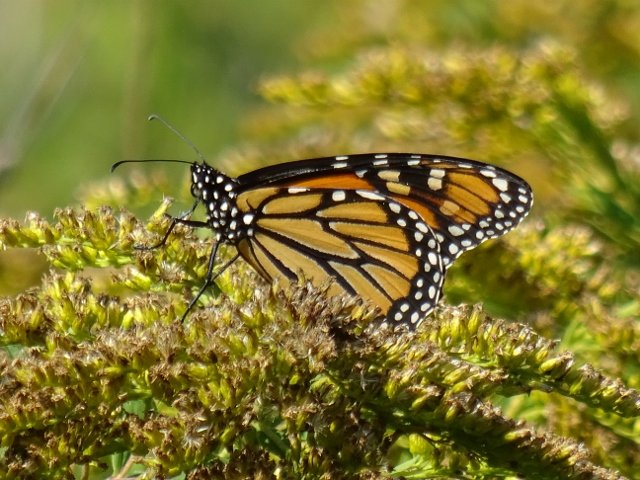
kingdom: Animalia
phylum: Arthropoda
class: Insecta
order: Lepidoptera
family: Nymphalidae
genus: Danaus
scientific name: Danaus plexippus
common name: Monarch
